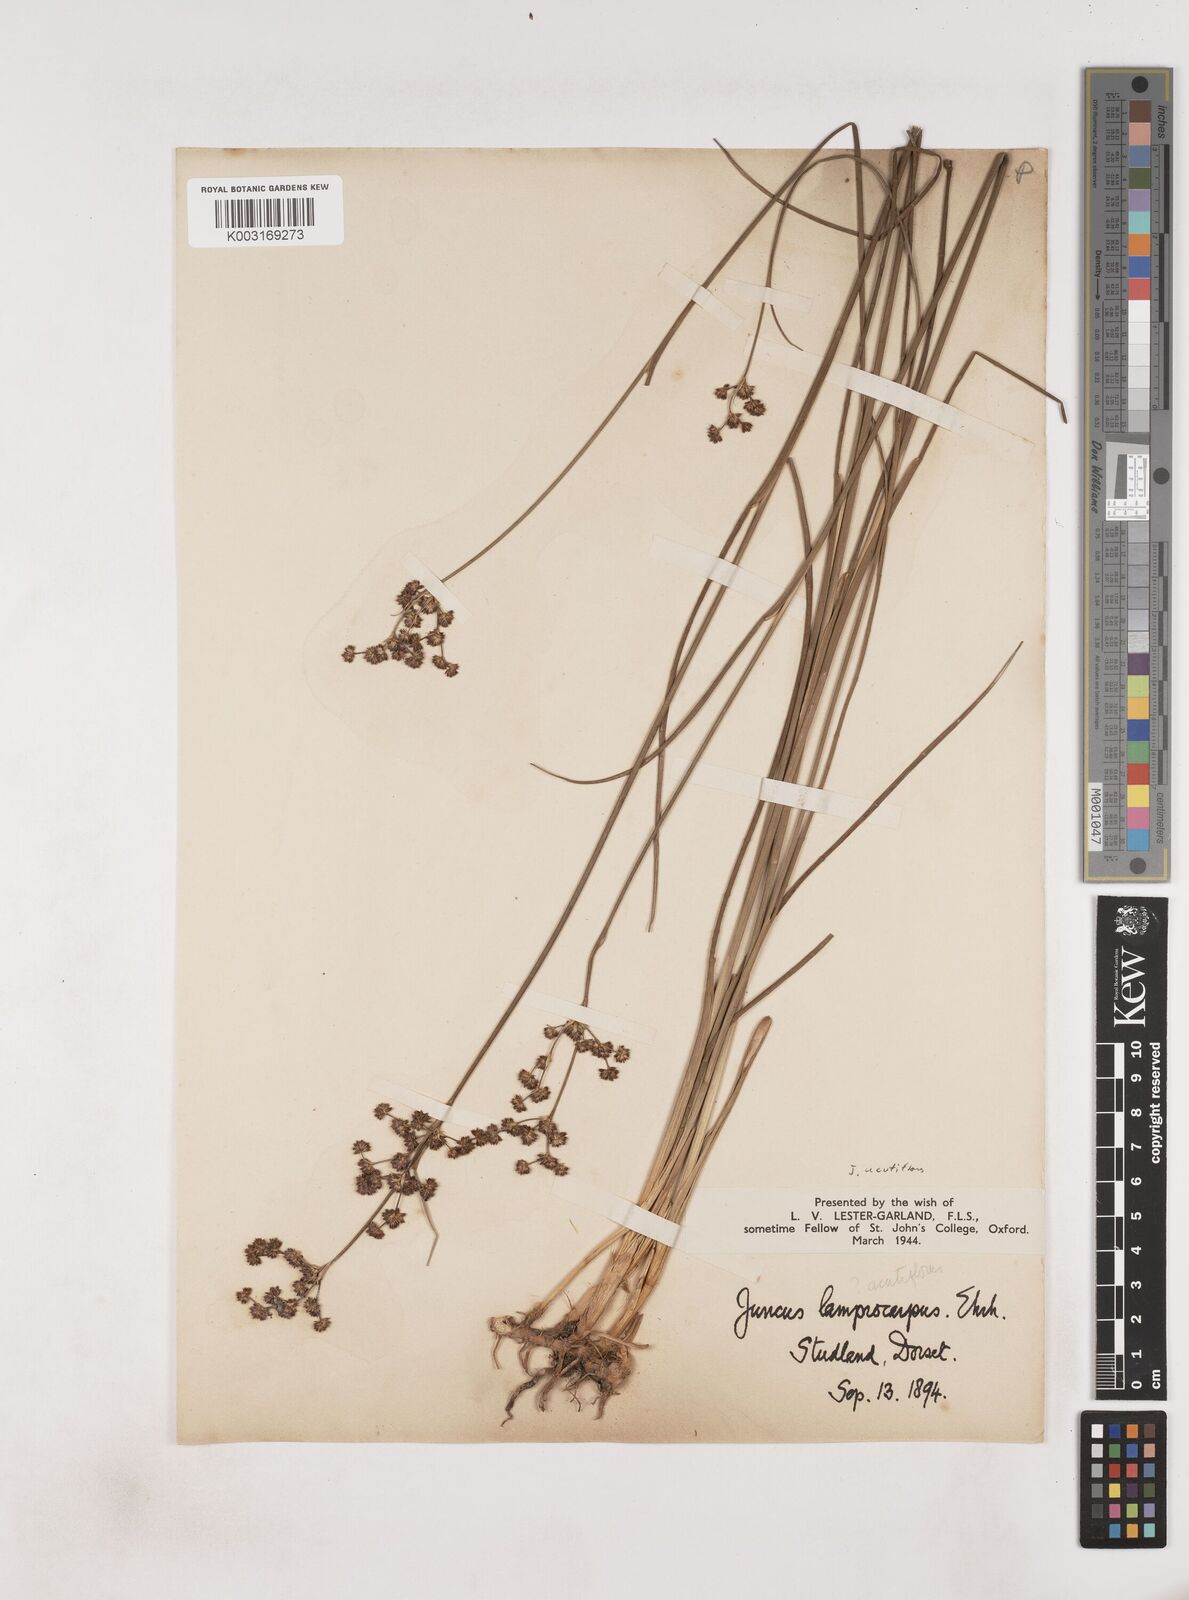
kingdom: Plantae
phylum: Tracheophyta
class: Liliopsida
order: Poales
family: Juncaceae
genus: Juncus
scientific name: Juncus acutiflorus
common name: Sharp-flowered rush
